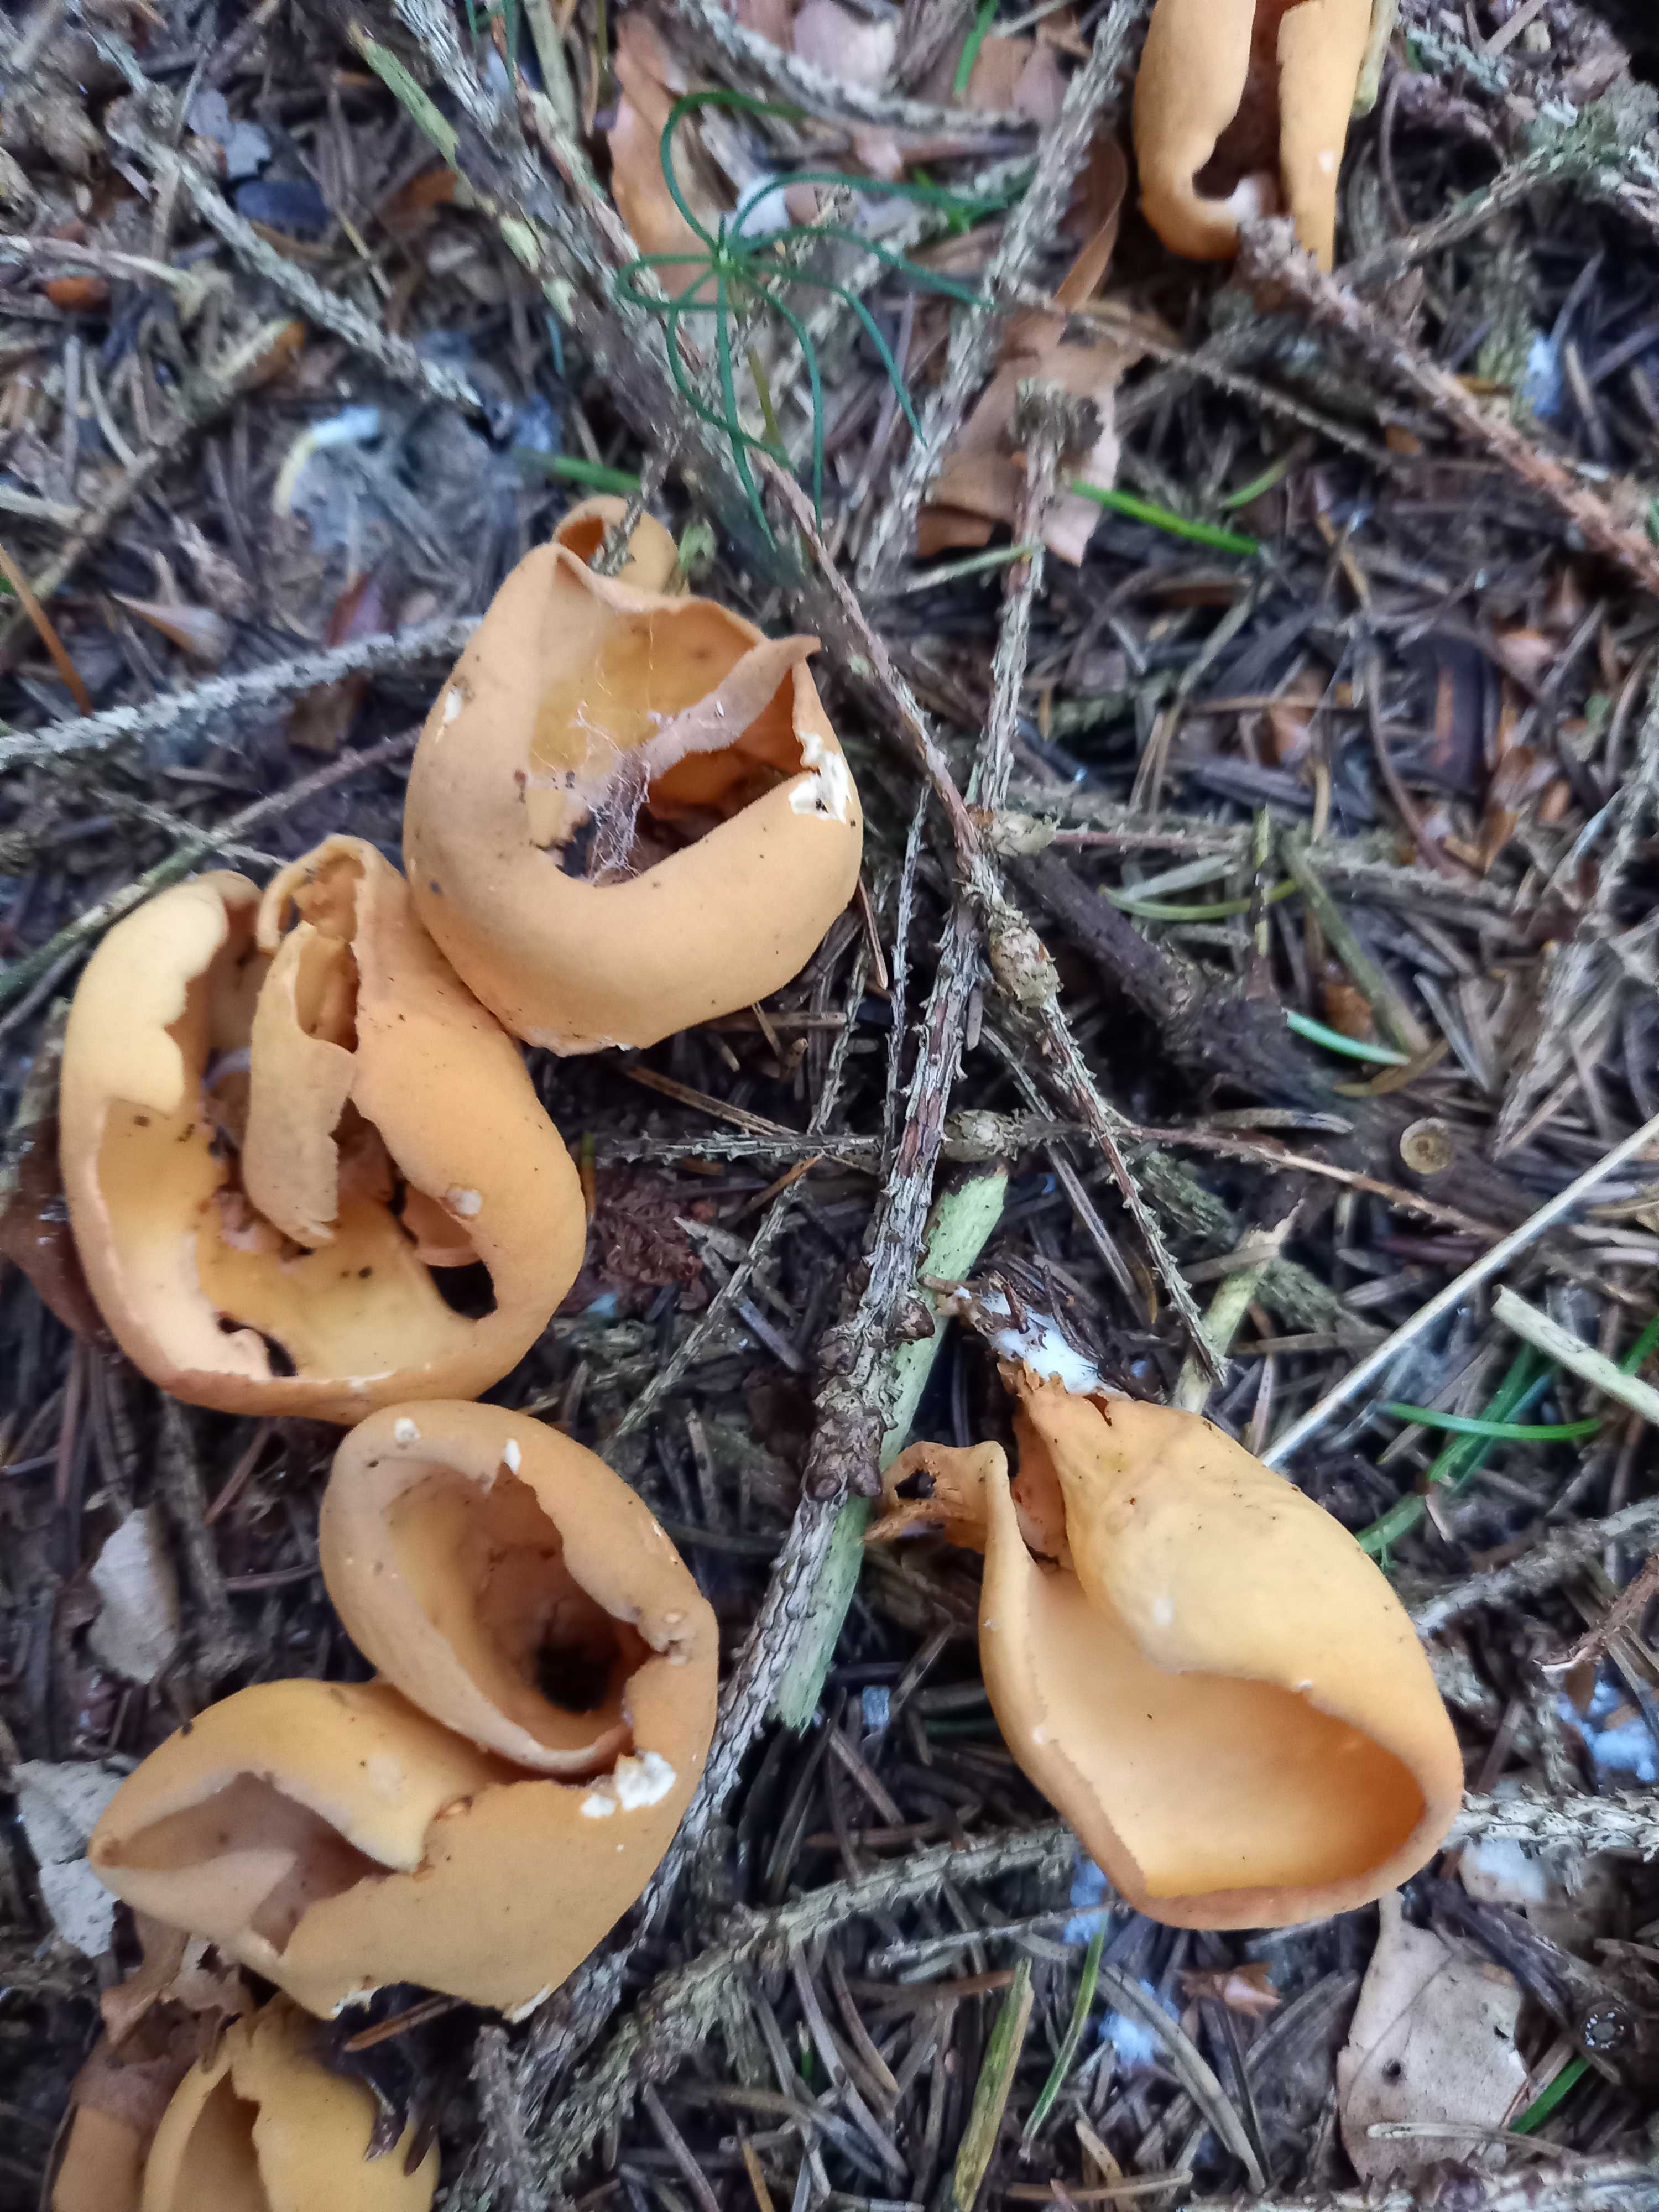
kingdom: Fungi
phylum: Ascomycota
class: Pezizomycetes
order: Pezizales
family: Otideaceae
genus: Otidea
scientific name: Otidea onotica
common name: æsel-ørebæger
